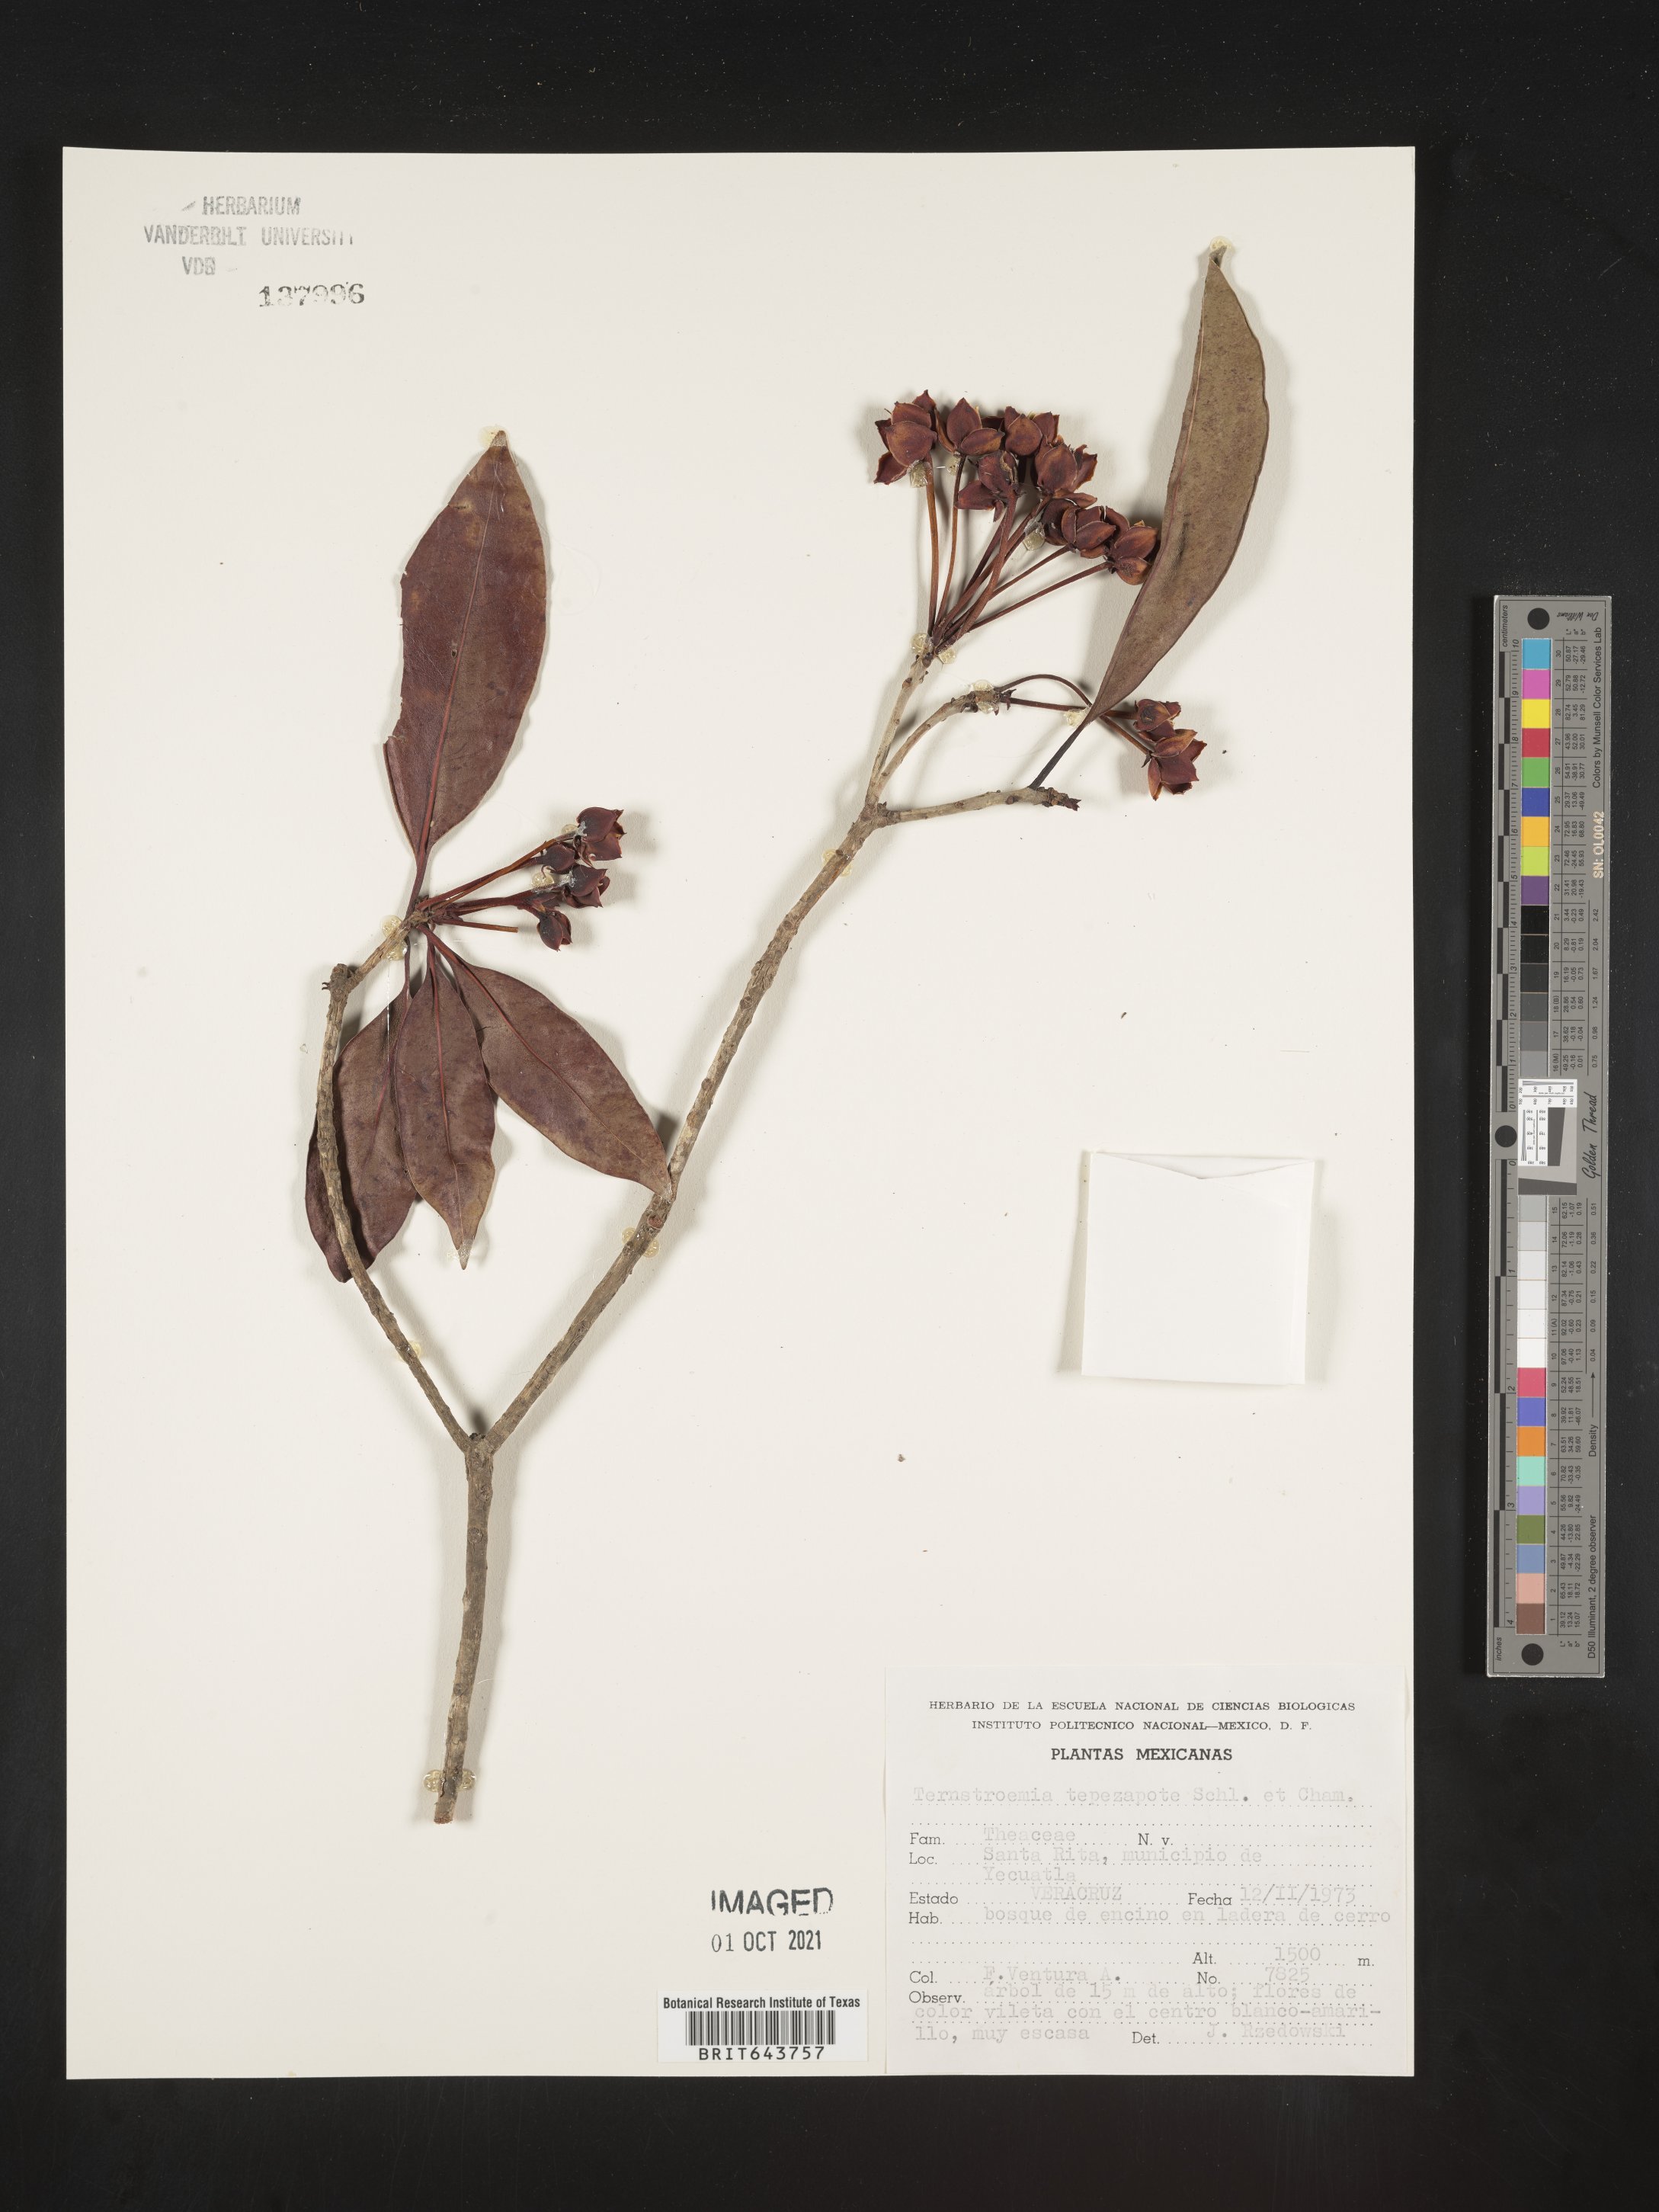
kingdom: Plantae
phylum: Tracheophyta
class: Magnoliopsida
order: Ericales
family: Pentaphylacaceae
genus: Ternstroemia
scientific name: Ternstroemia
